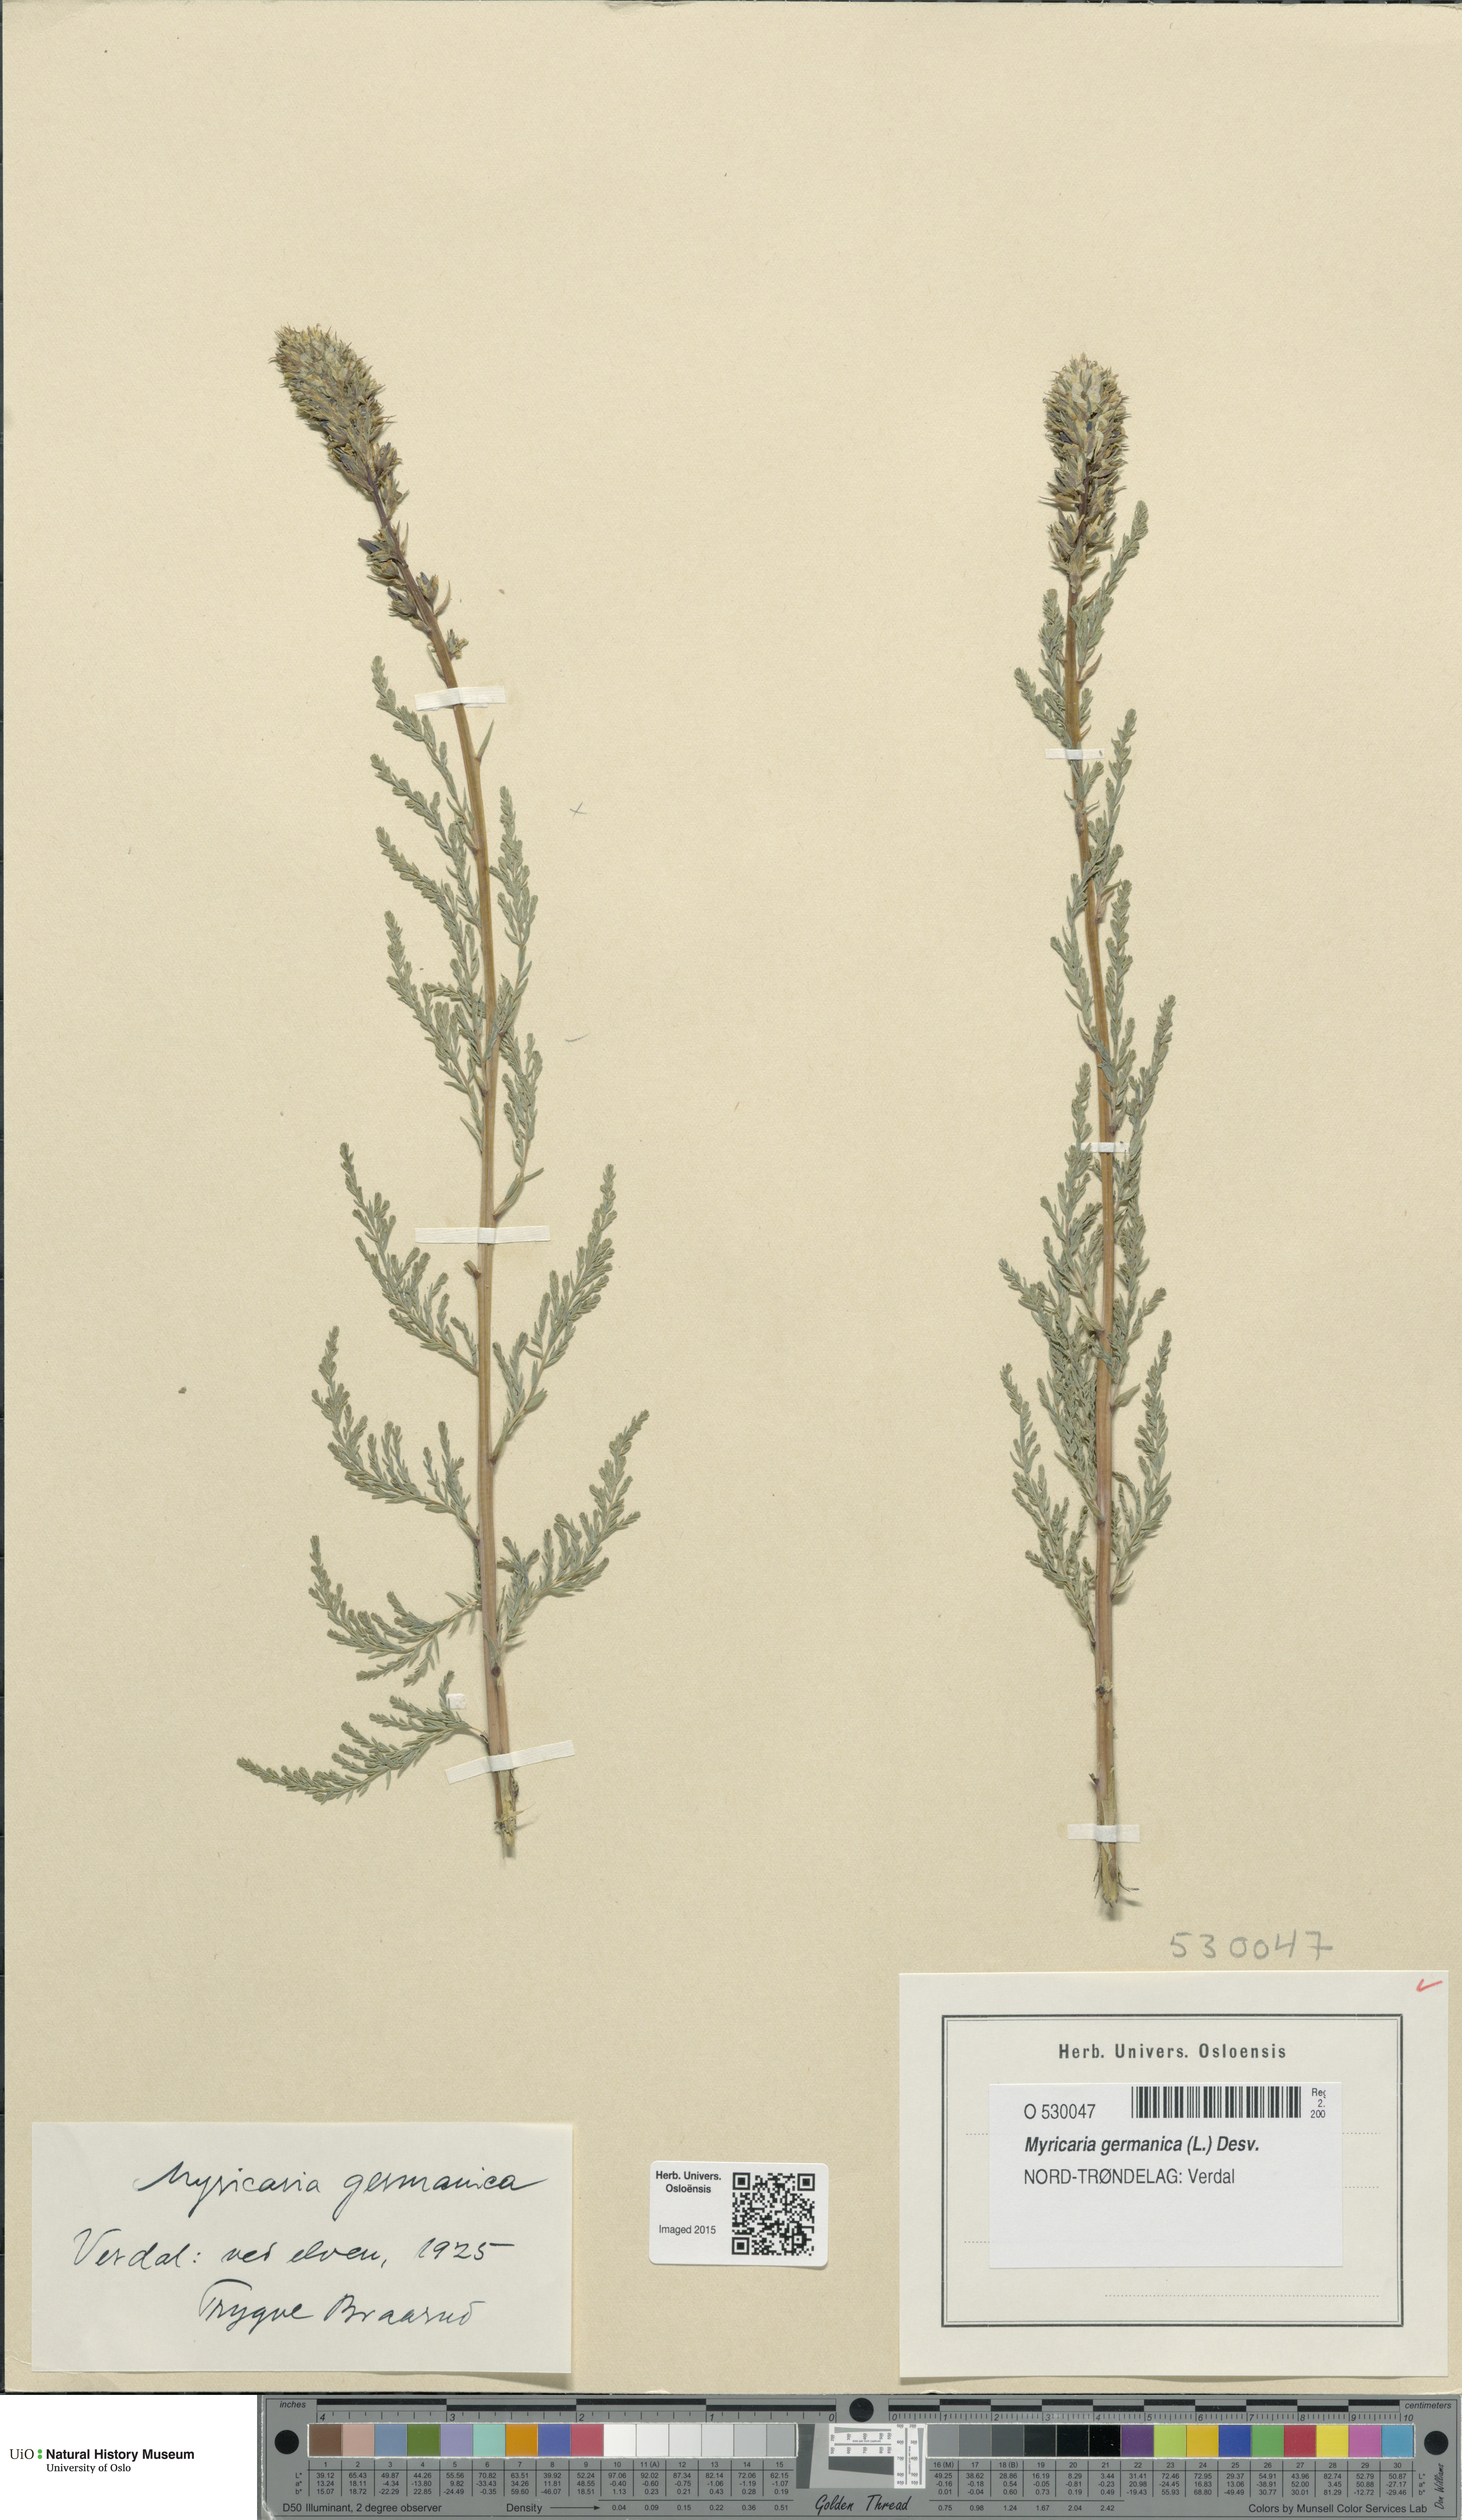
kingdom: Plantae
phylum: Tracheophyta
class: Magnoliopsida
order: Caryophyllales
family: Tamaricaceae
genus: Myricaria
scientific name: Myricaria germanica
